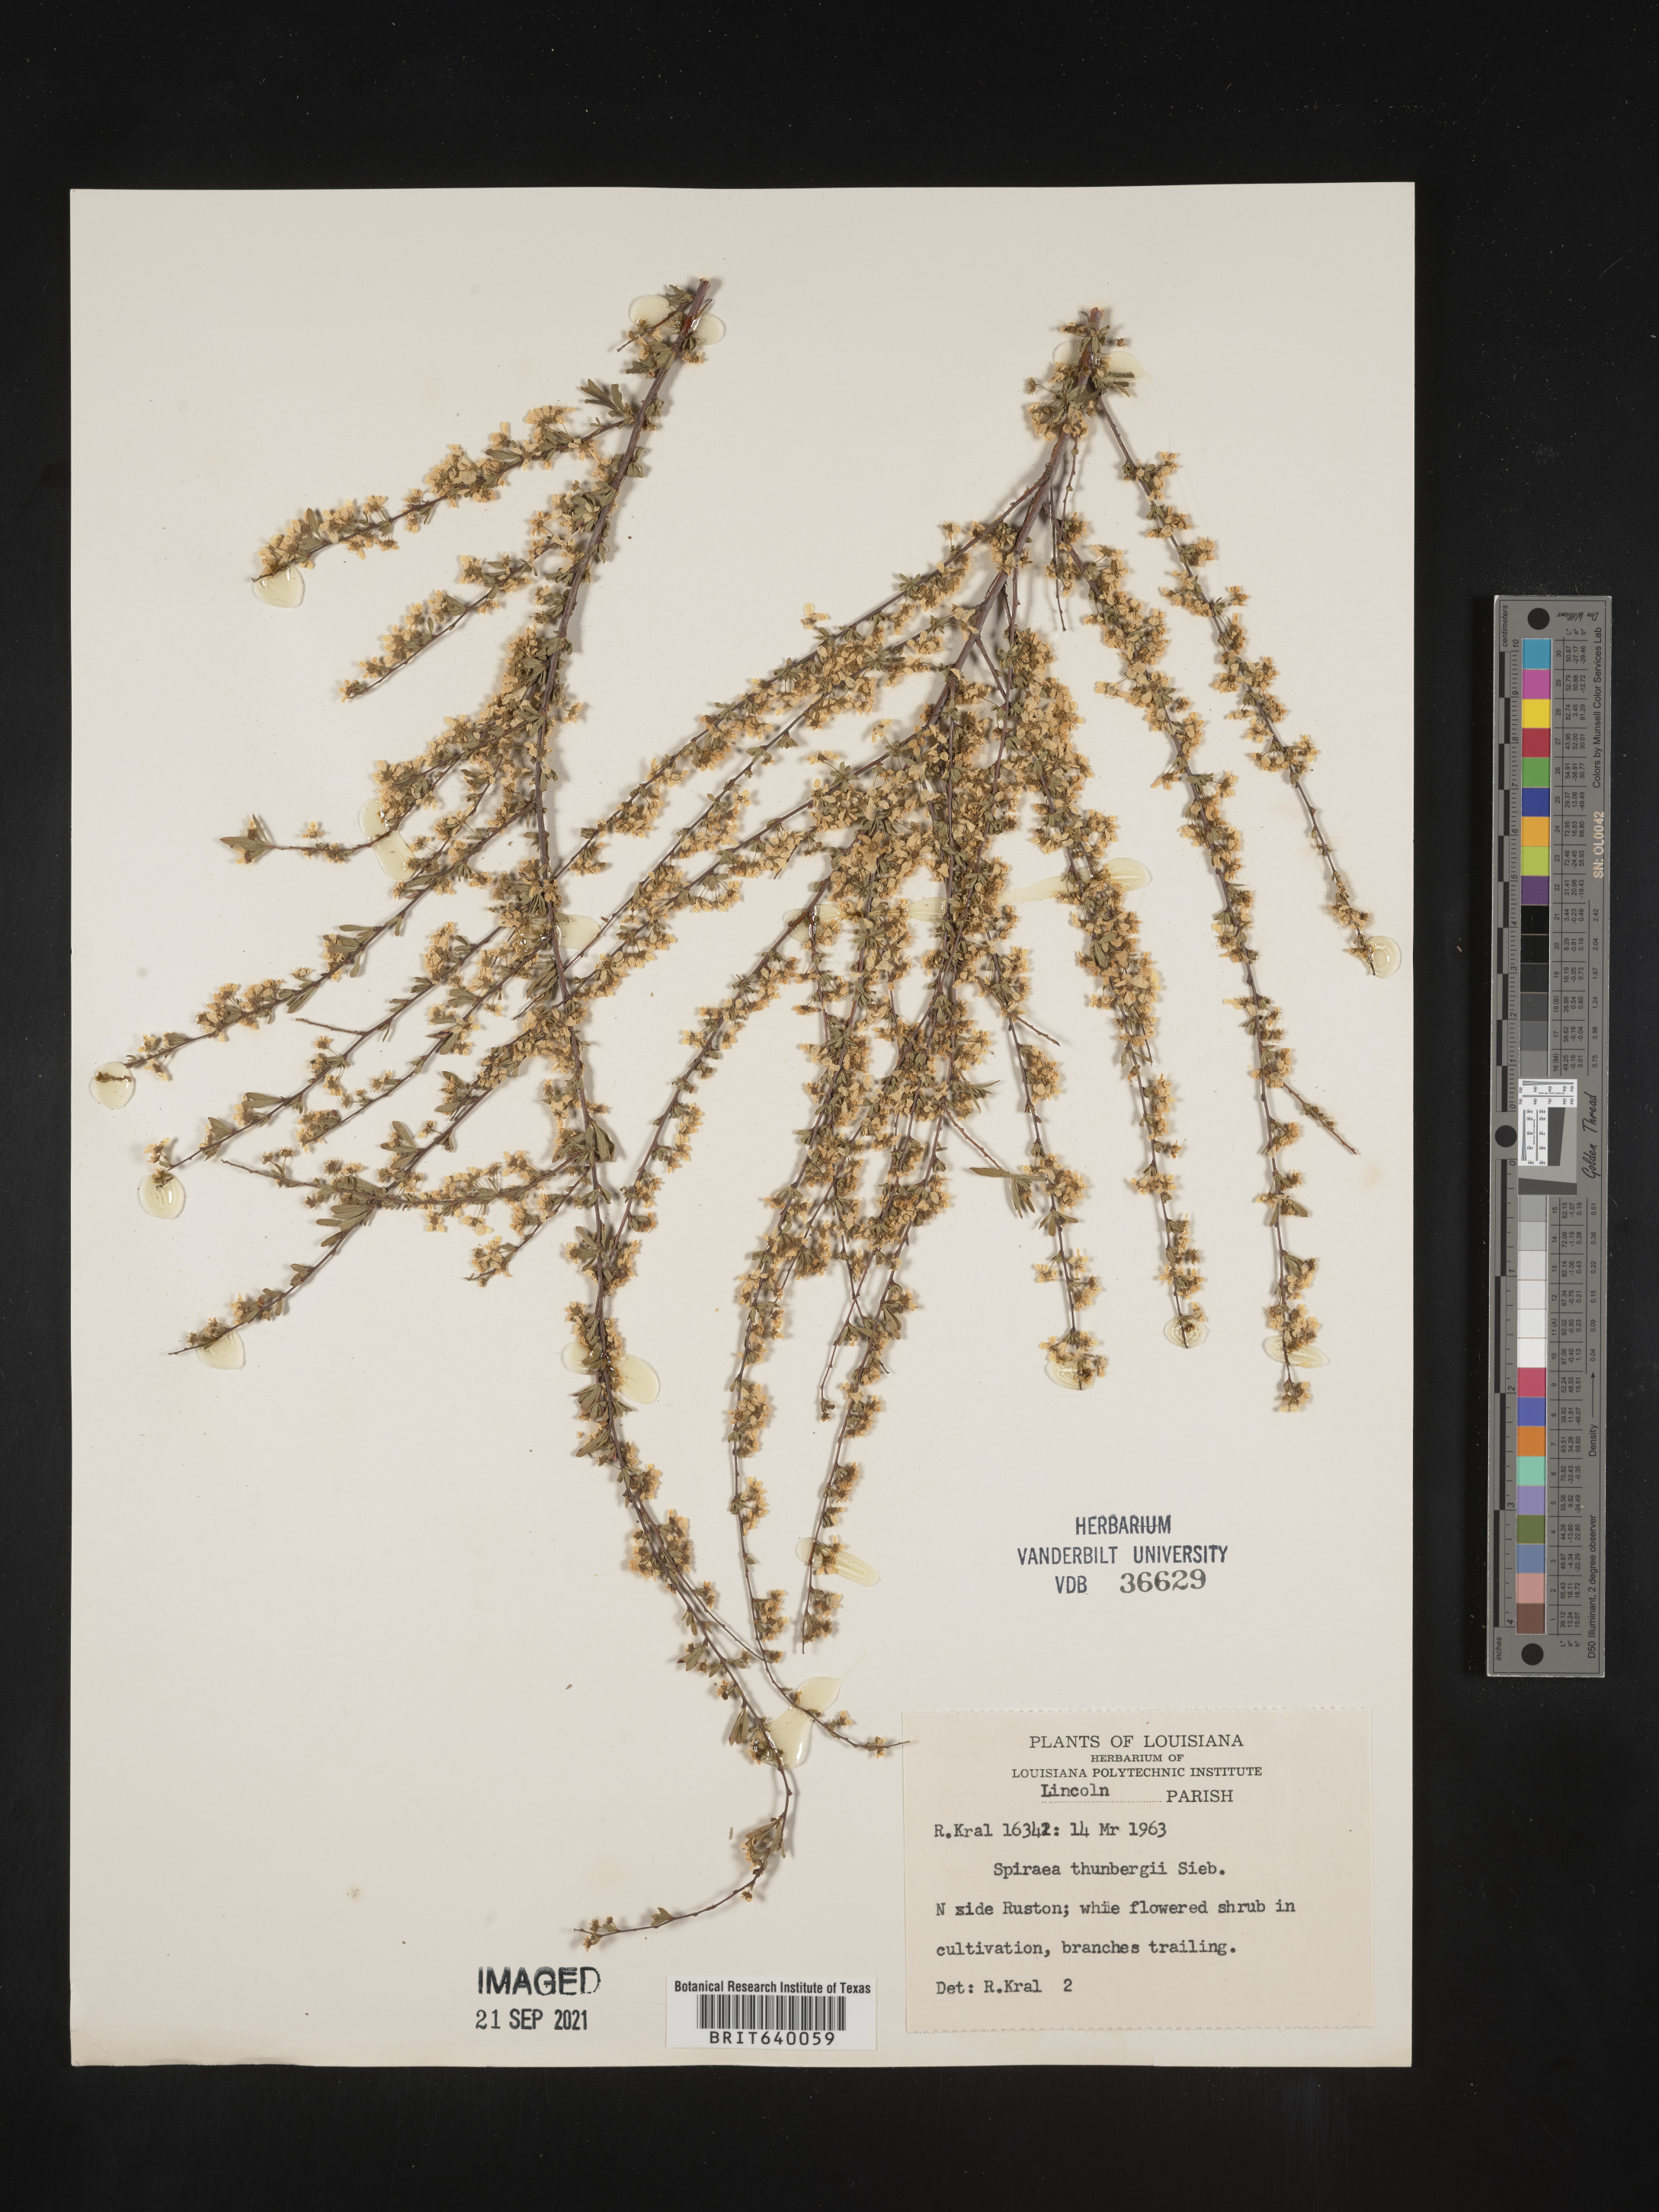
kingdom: Plantae
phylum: Tracheophyta
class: Magnoliopsida
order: Rosales
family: Rosaceae
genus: Spiraea
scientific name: Spiraea
